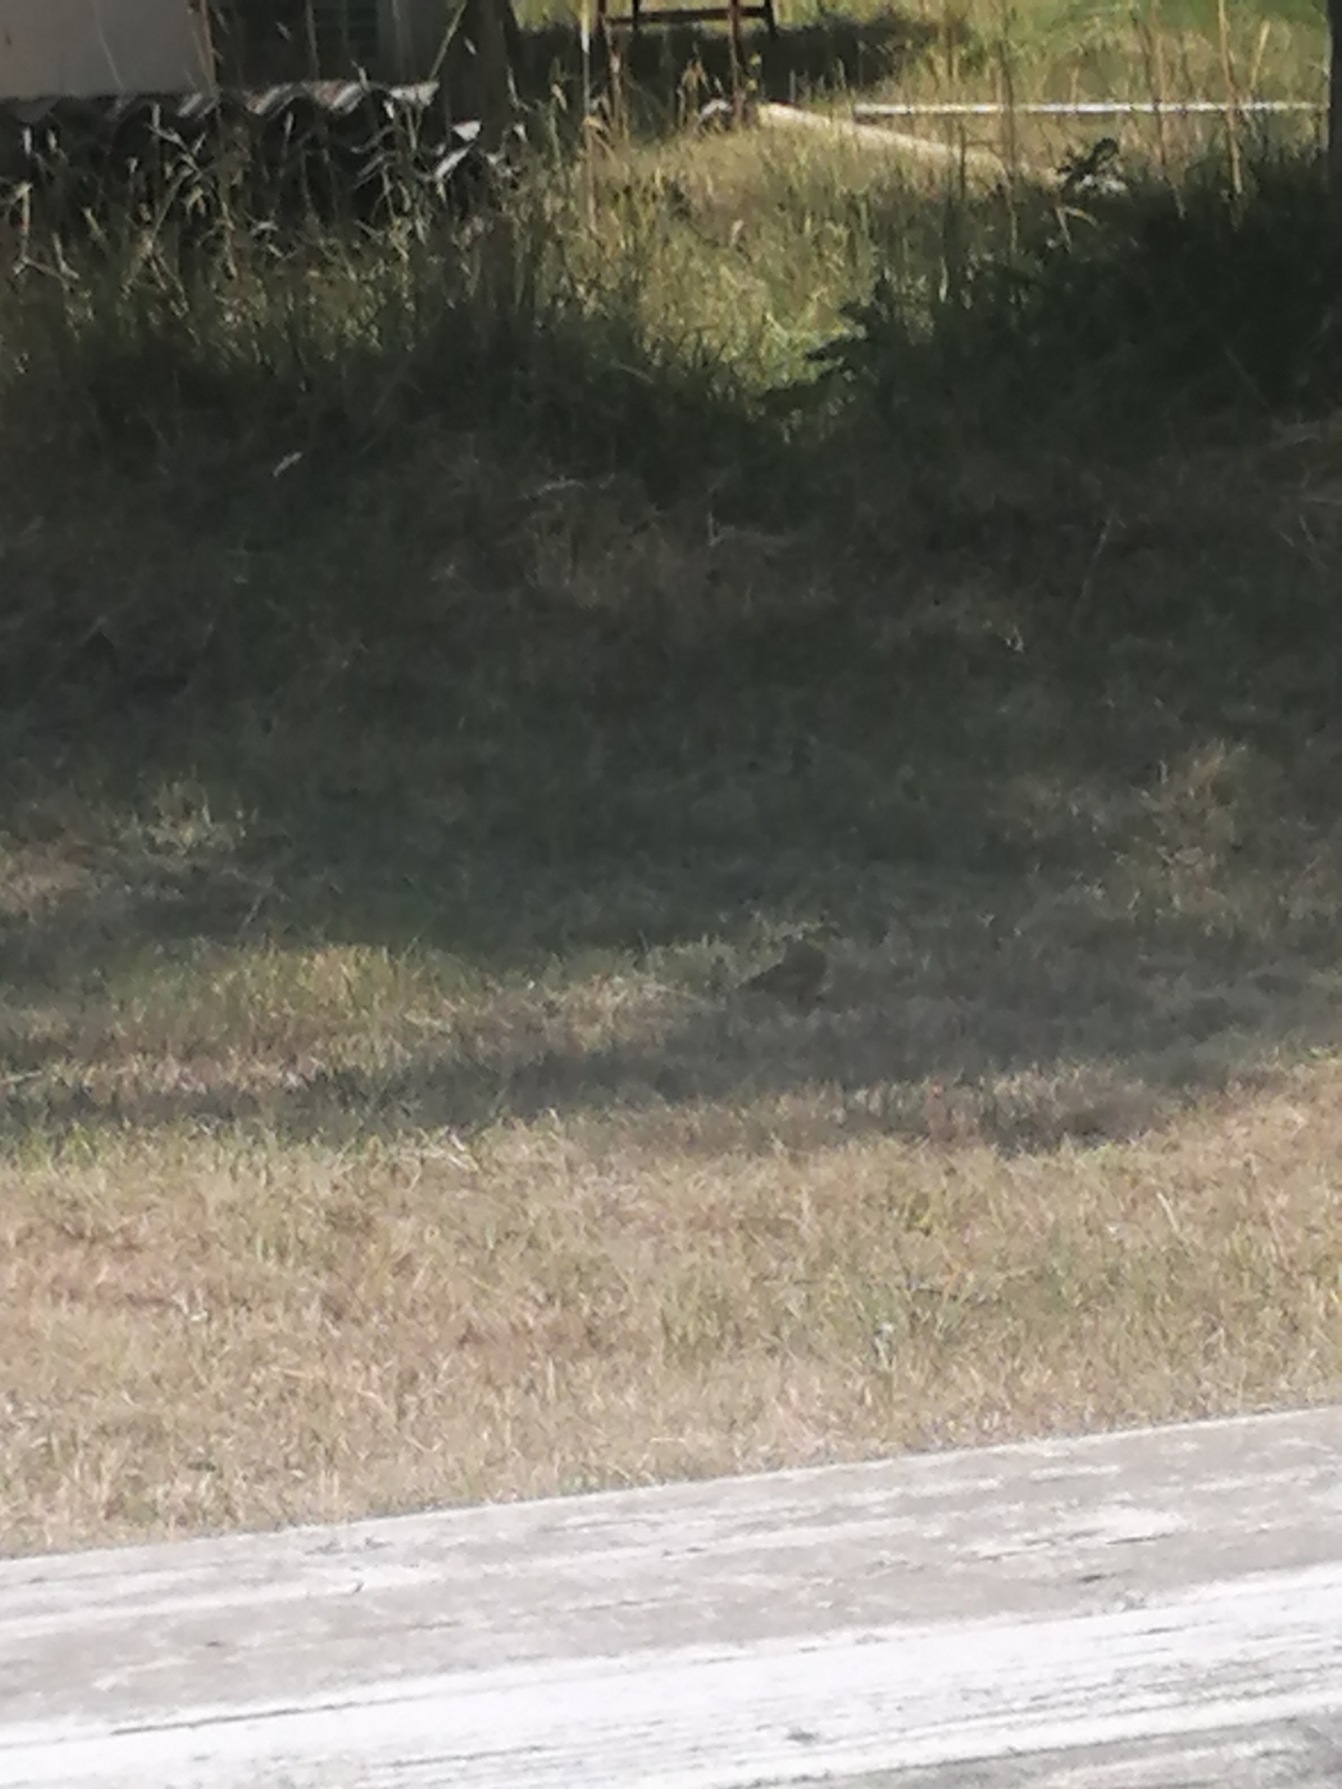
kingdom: Animalia
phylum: Chordata
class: Aves
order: Passeriformes
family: Emberizidae
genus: Emberiza
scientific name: Emberiza citrinella
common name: Gulspurv
